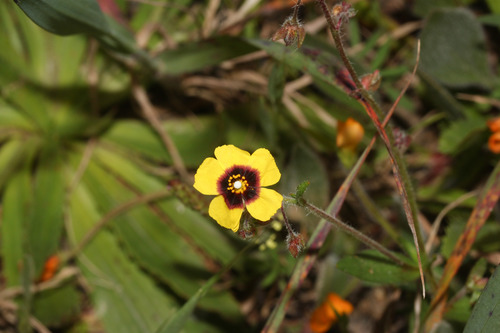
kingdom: Plantae
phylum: Tracheophyta
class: Magnoliopsida
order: Malvales
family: Cistaceae
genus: Tuberaria
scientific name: Tuberaria guttata
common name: Spotted rock-rose
